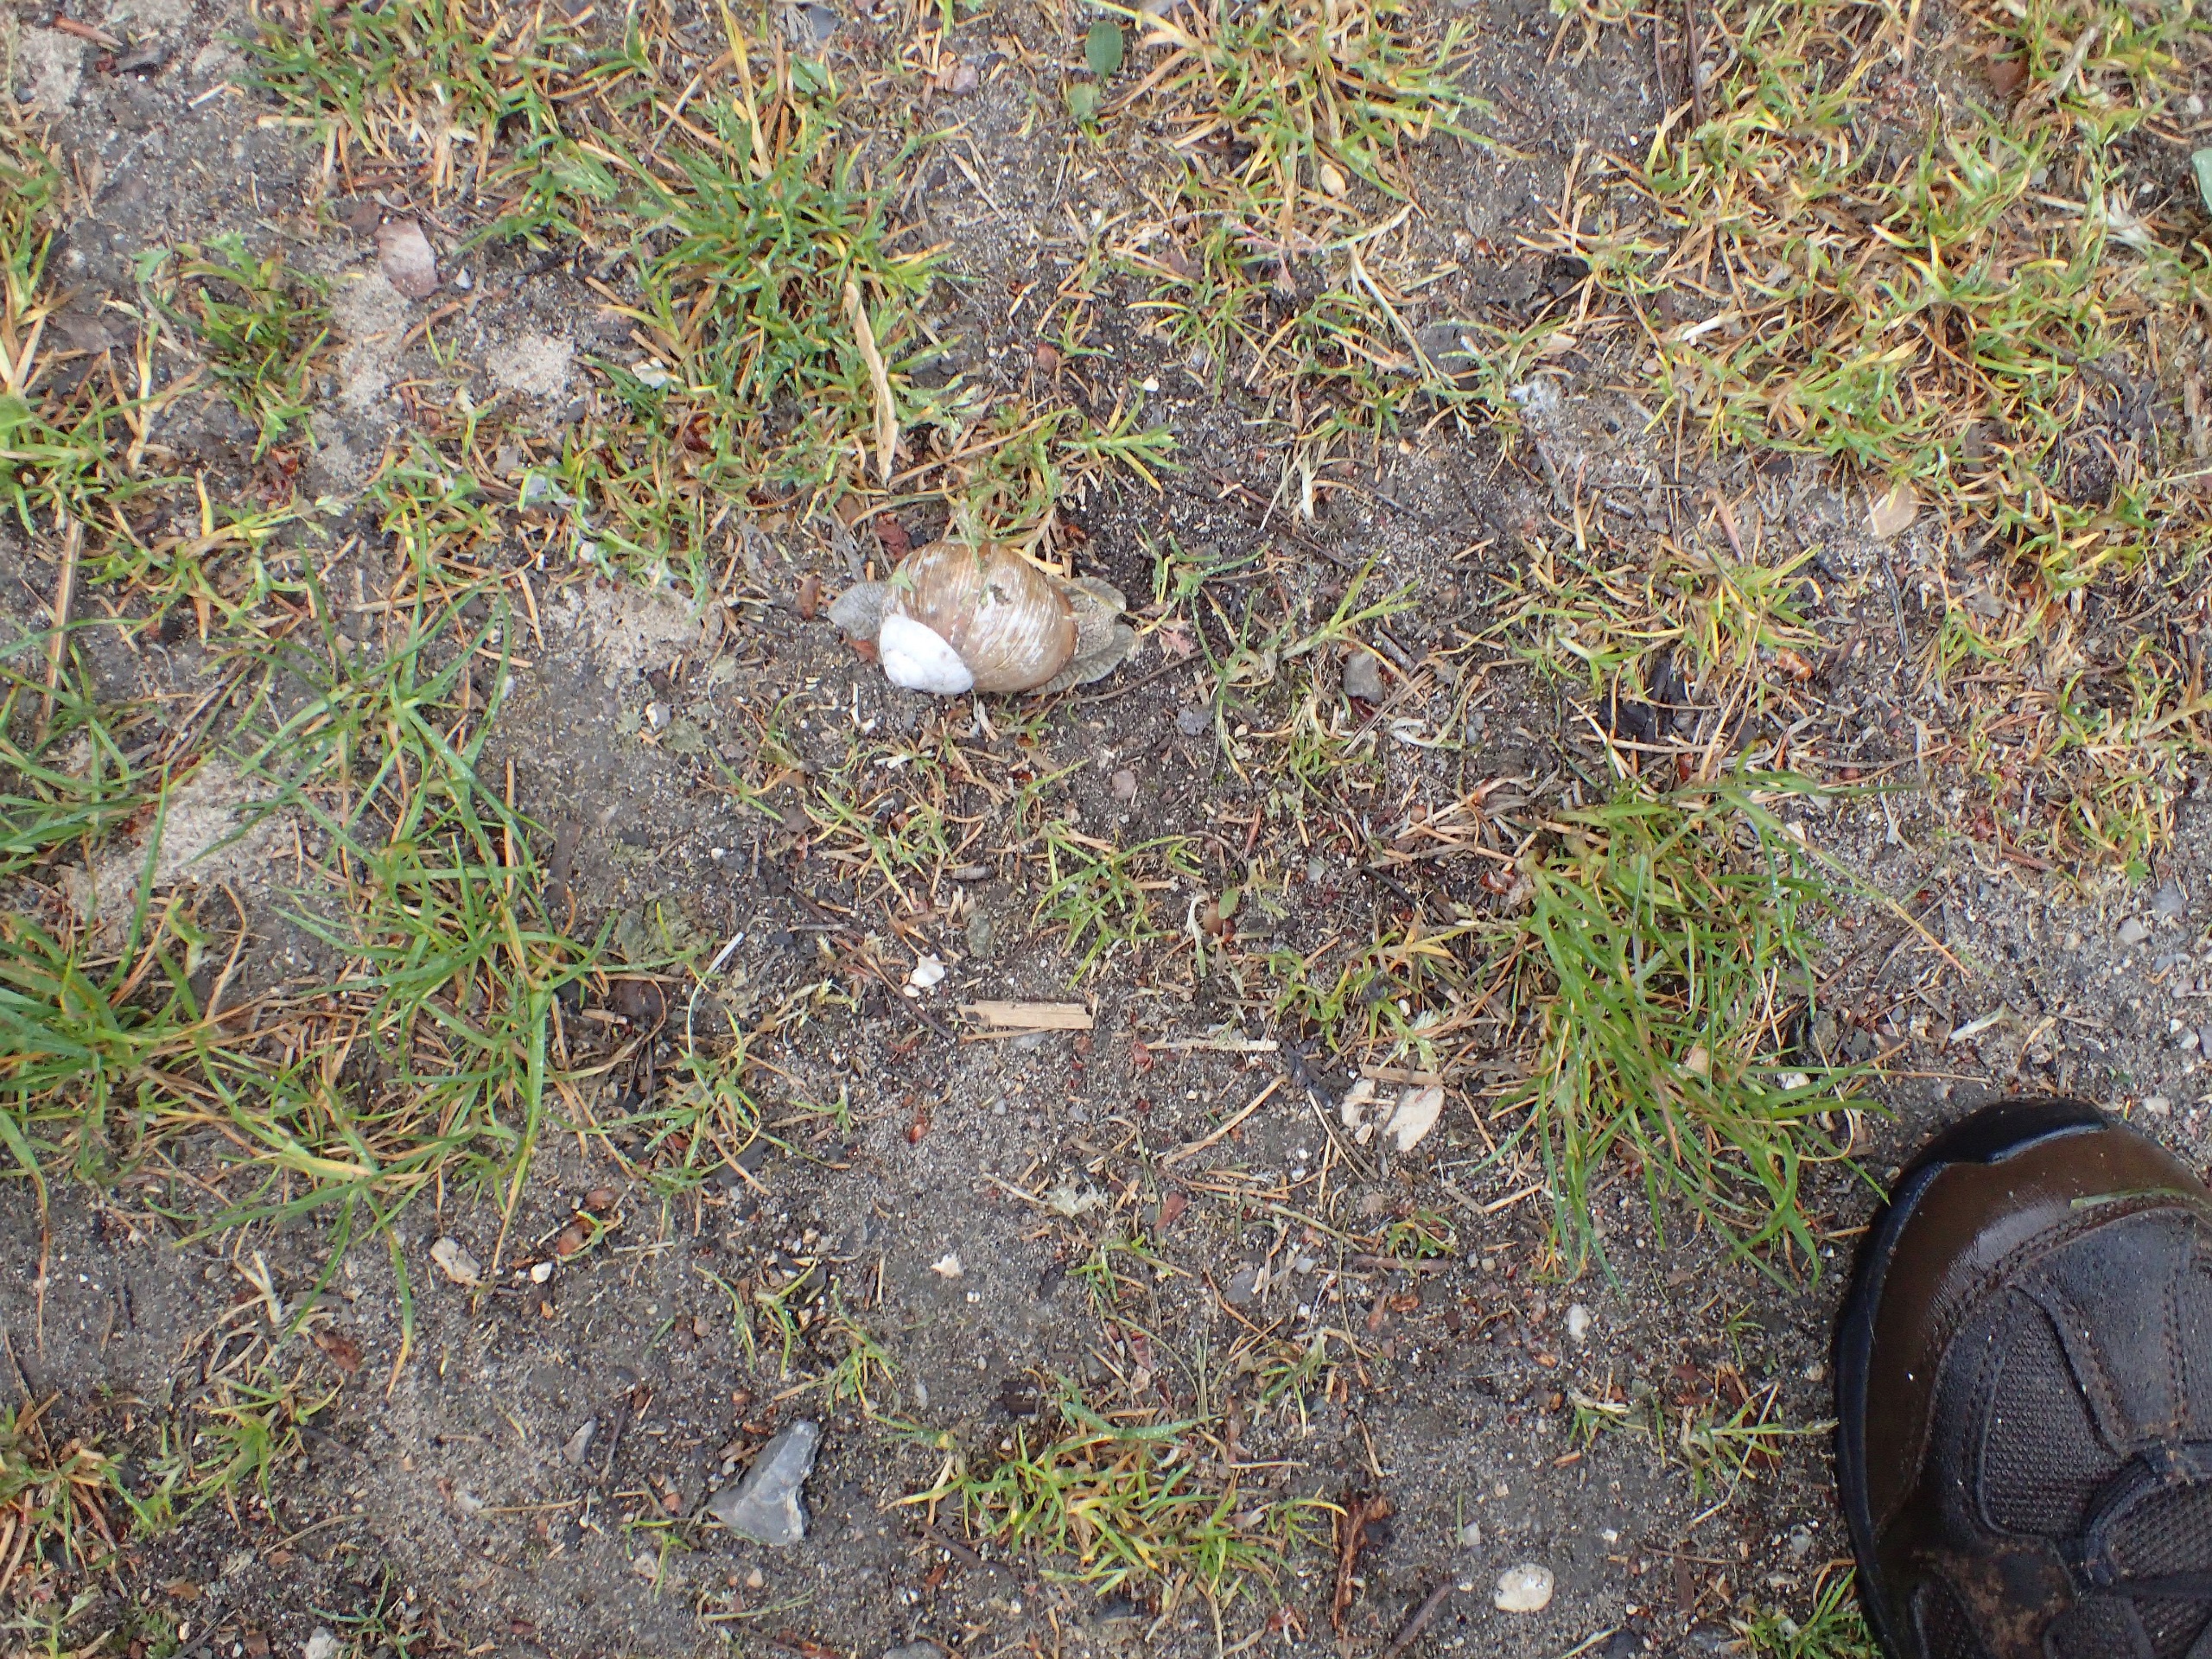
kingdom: Animalia
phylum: Mollusca
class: Gastropoda
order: Stylommatophora
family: Helicidae
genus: Helix
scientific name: Helix pomatia
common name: Vinbjergsnegl
